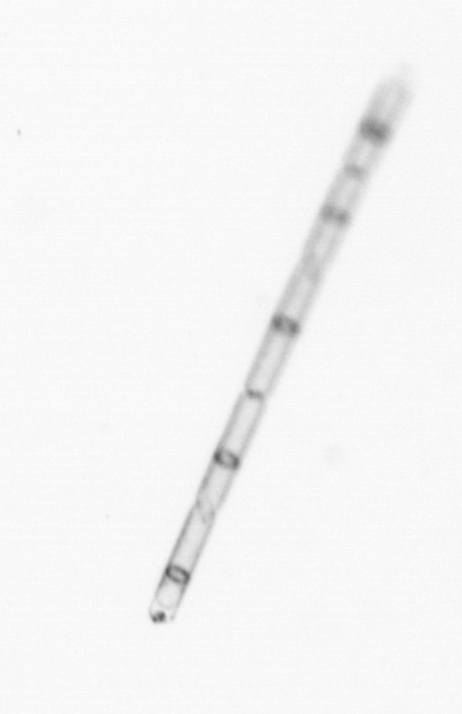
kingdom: Chromista
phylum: Ochrophyta
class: Bacillariophyceae
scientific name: Bacillariophyceae
